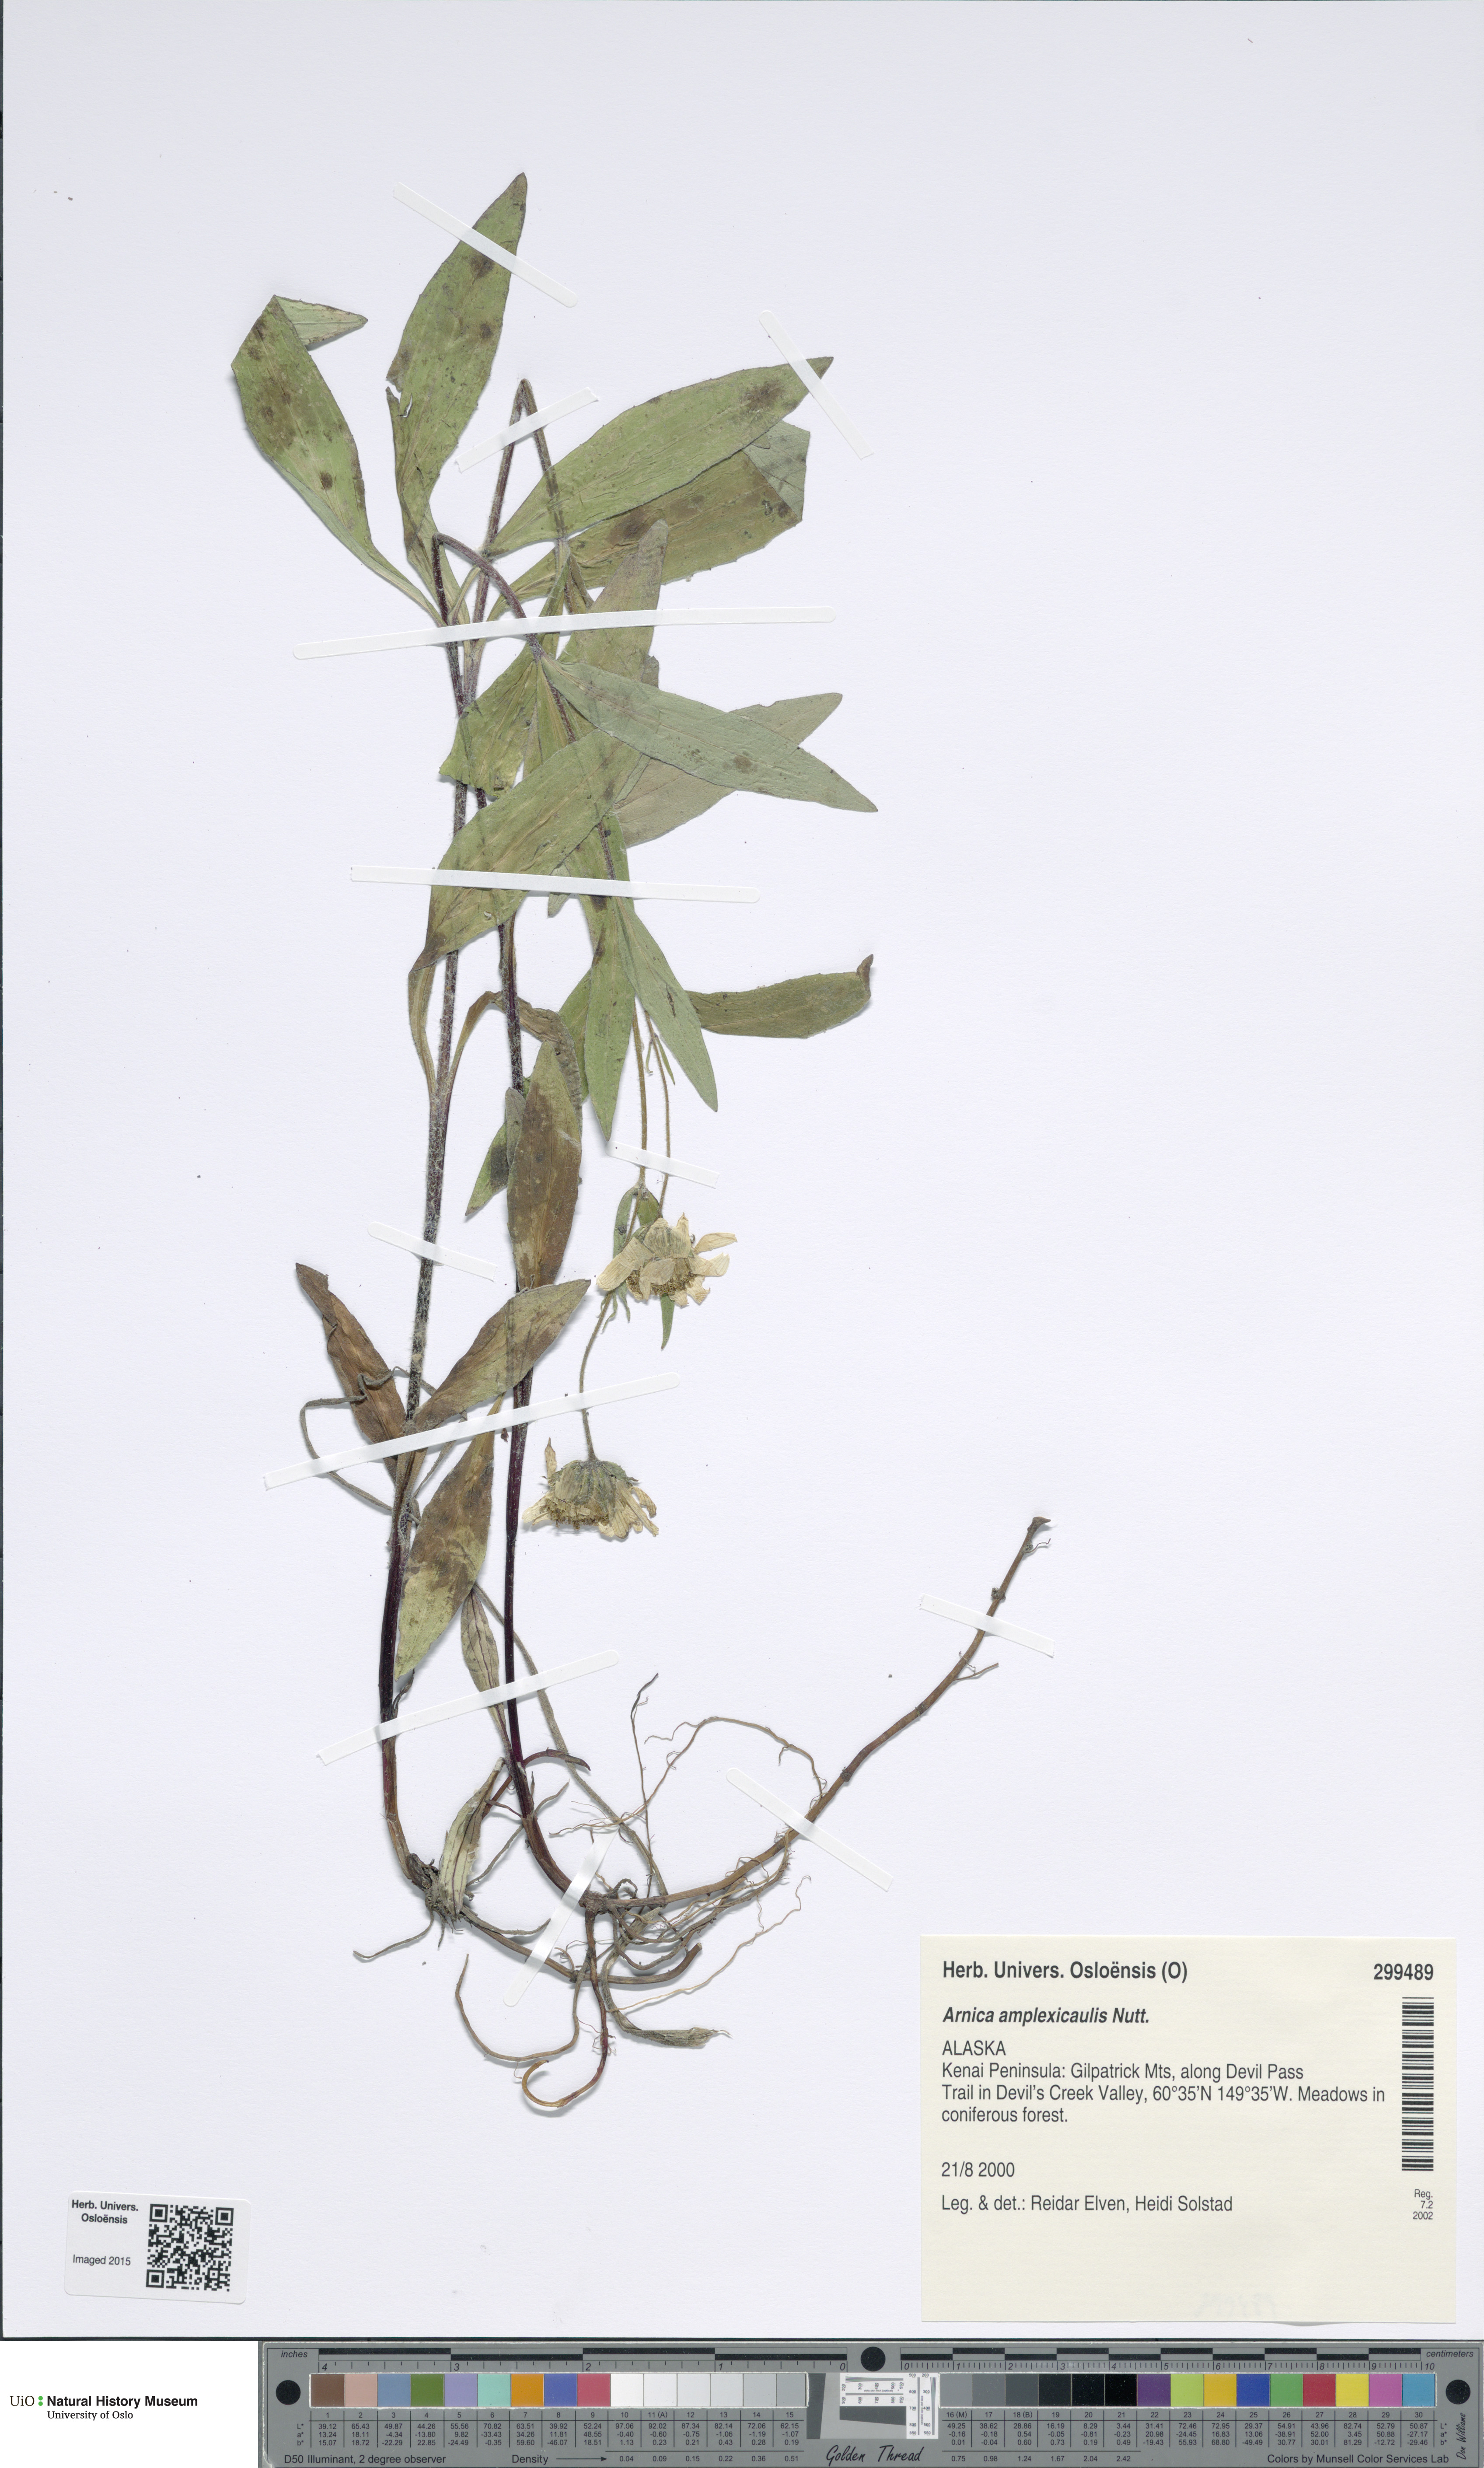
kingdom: Plantae
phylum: Tracheophyta
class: Magnoliopsida
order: Asterales
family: Asteraceae
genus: Arnica
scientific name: Arnica lanceolata
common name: Lance-leaved arnica
